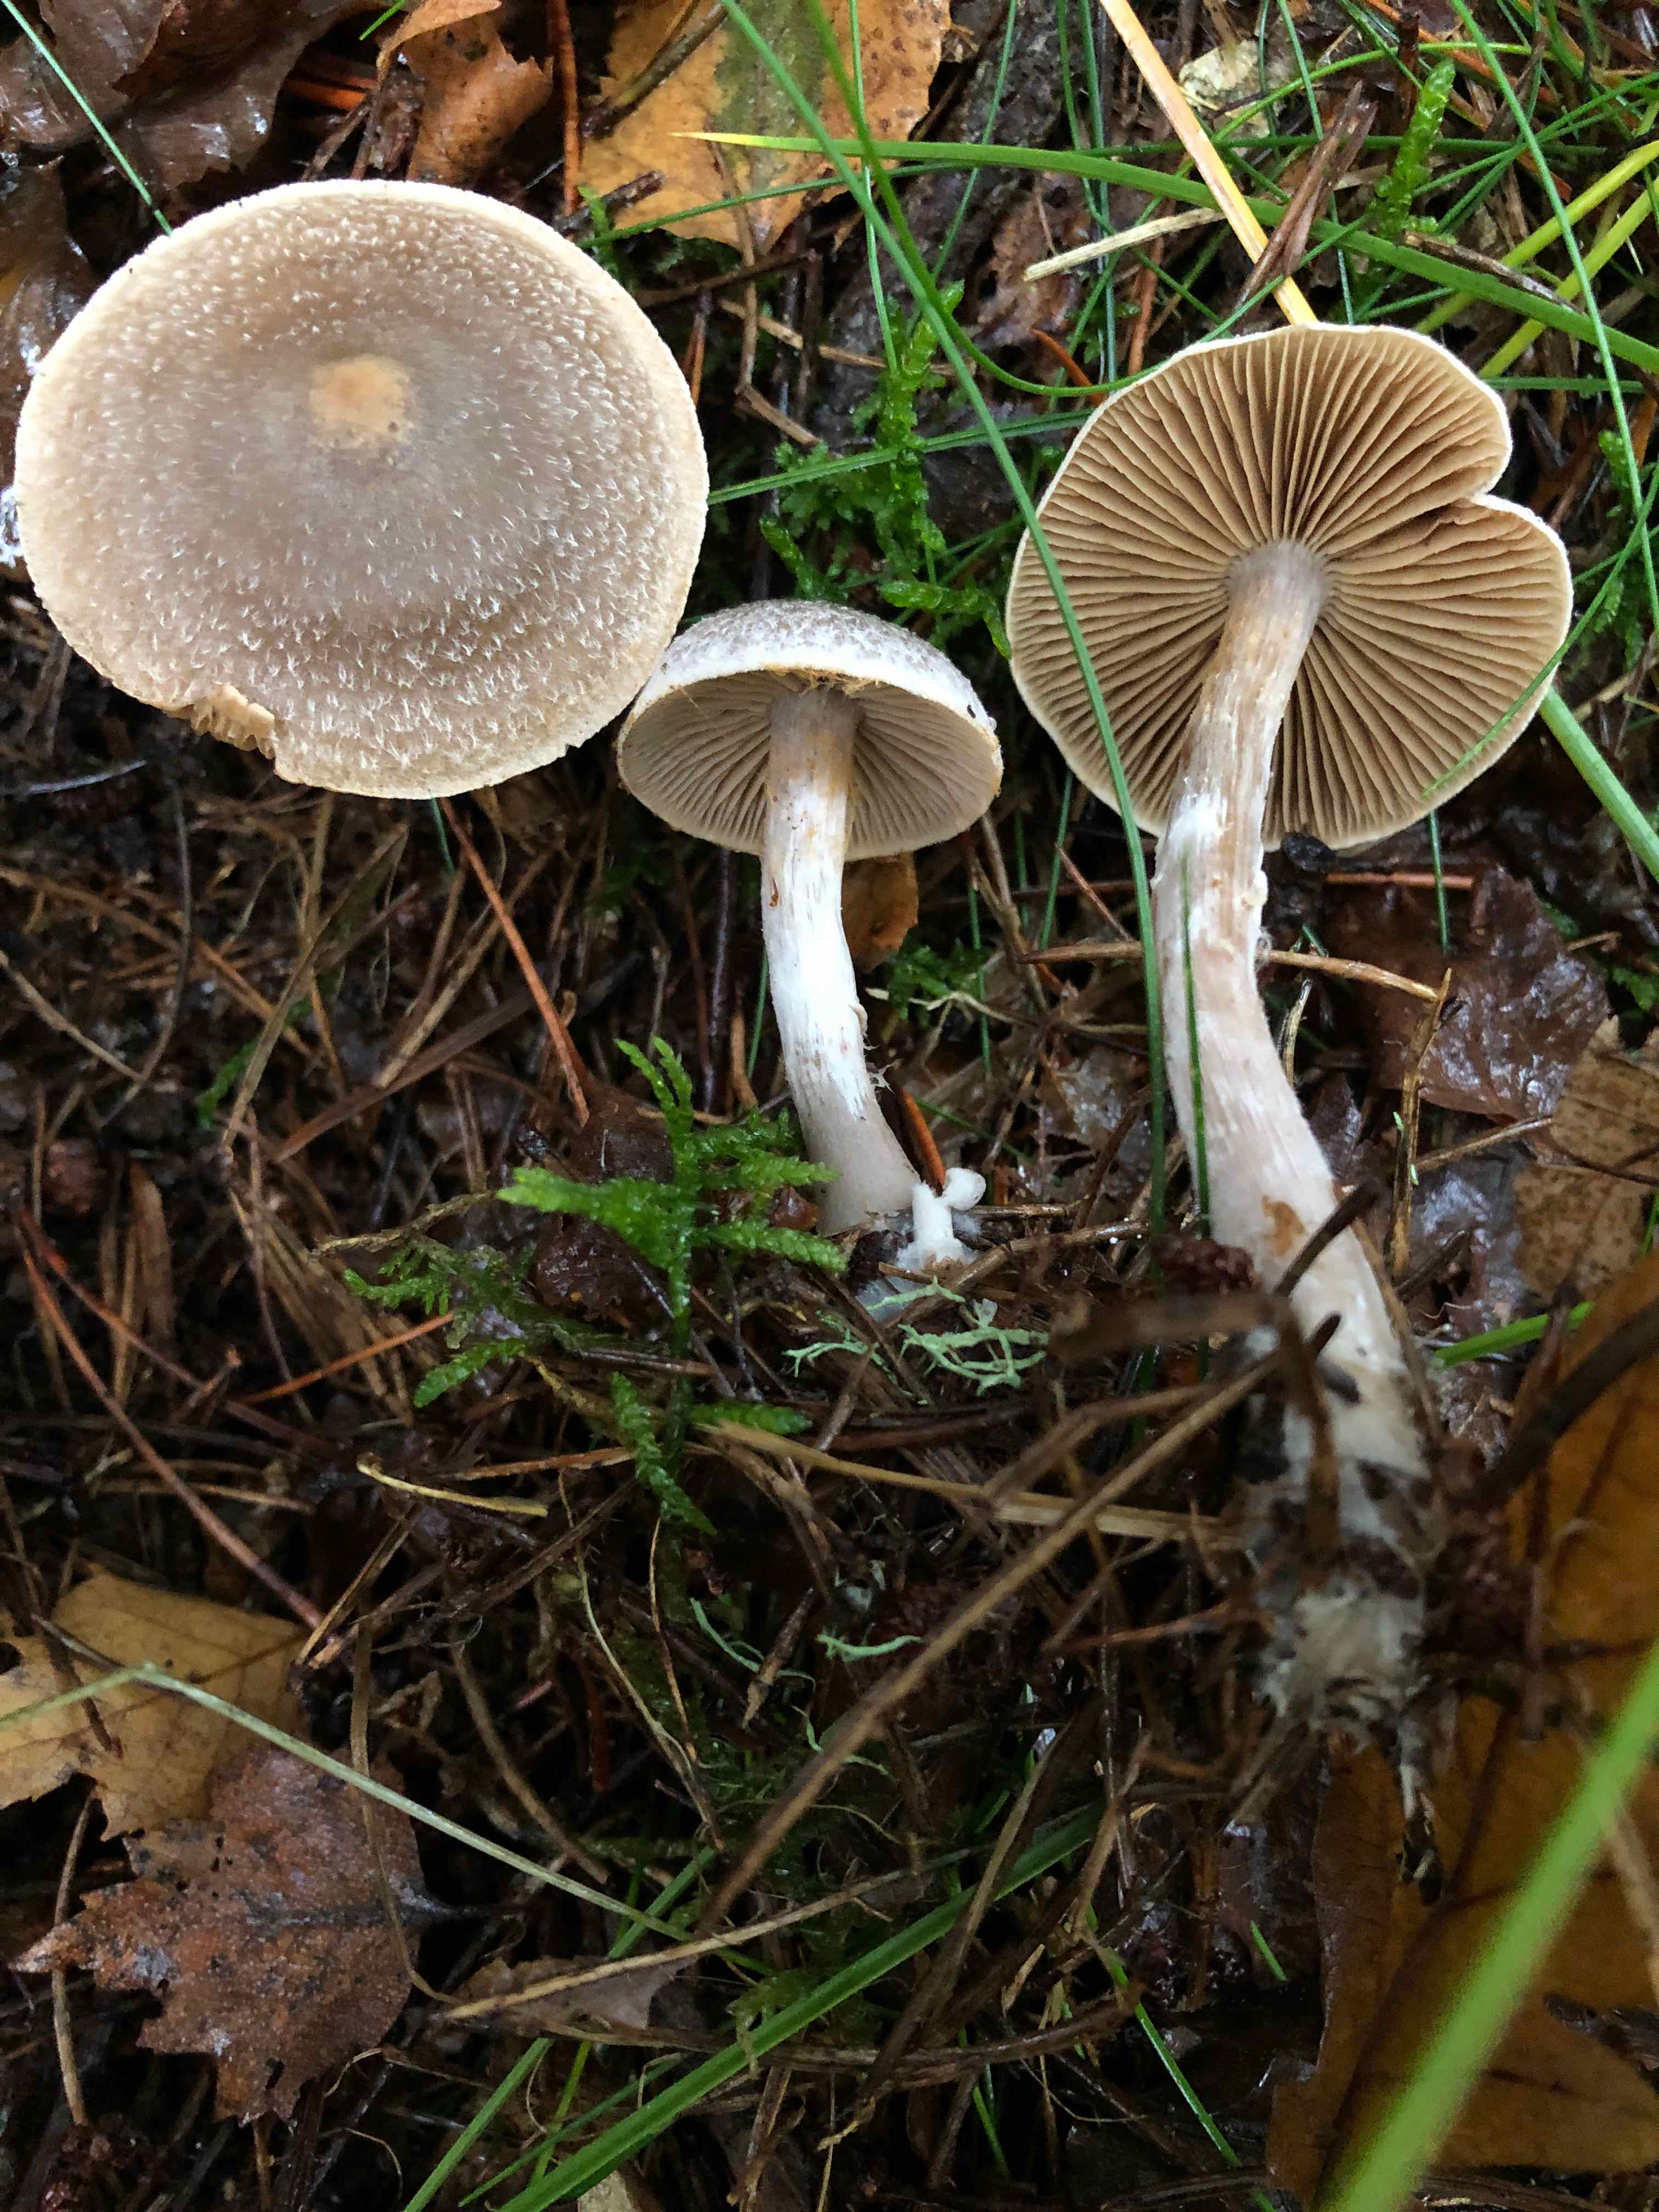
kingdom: Fungi
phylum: Basidiomycota
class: Agaricomycetes
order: Agaricales
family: Cortinariaceae
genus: Cortinarius
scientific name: Cortinarius hemitrichus
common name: hvidfnugget slørhat
